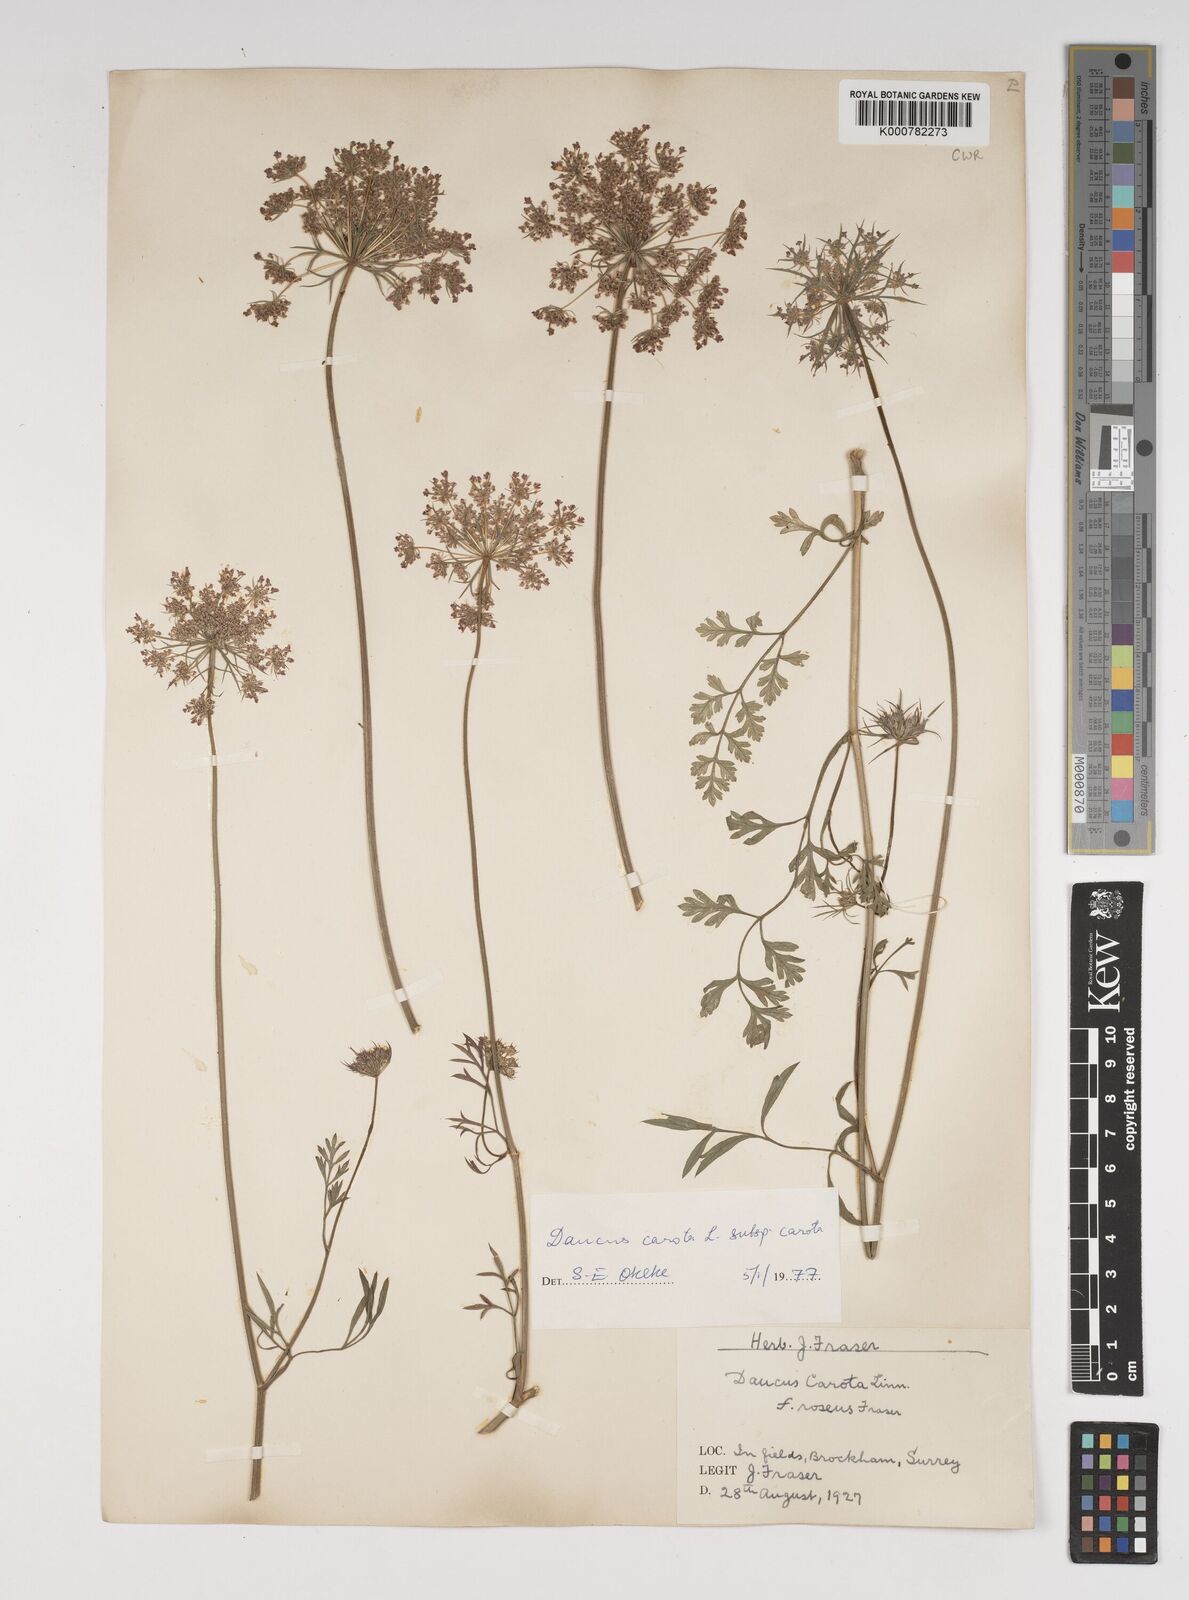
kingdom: Plantae
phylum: Tracheophyta
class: Magnoliopsida
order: Apiales
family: Apiaceae
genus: Daucus
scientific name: Daucus carota
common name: Wild carrot
